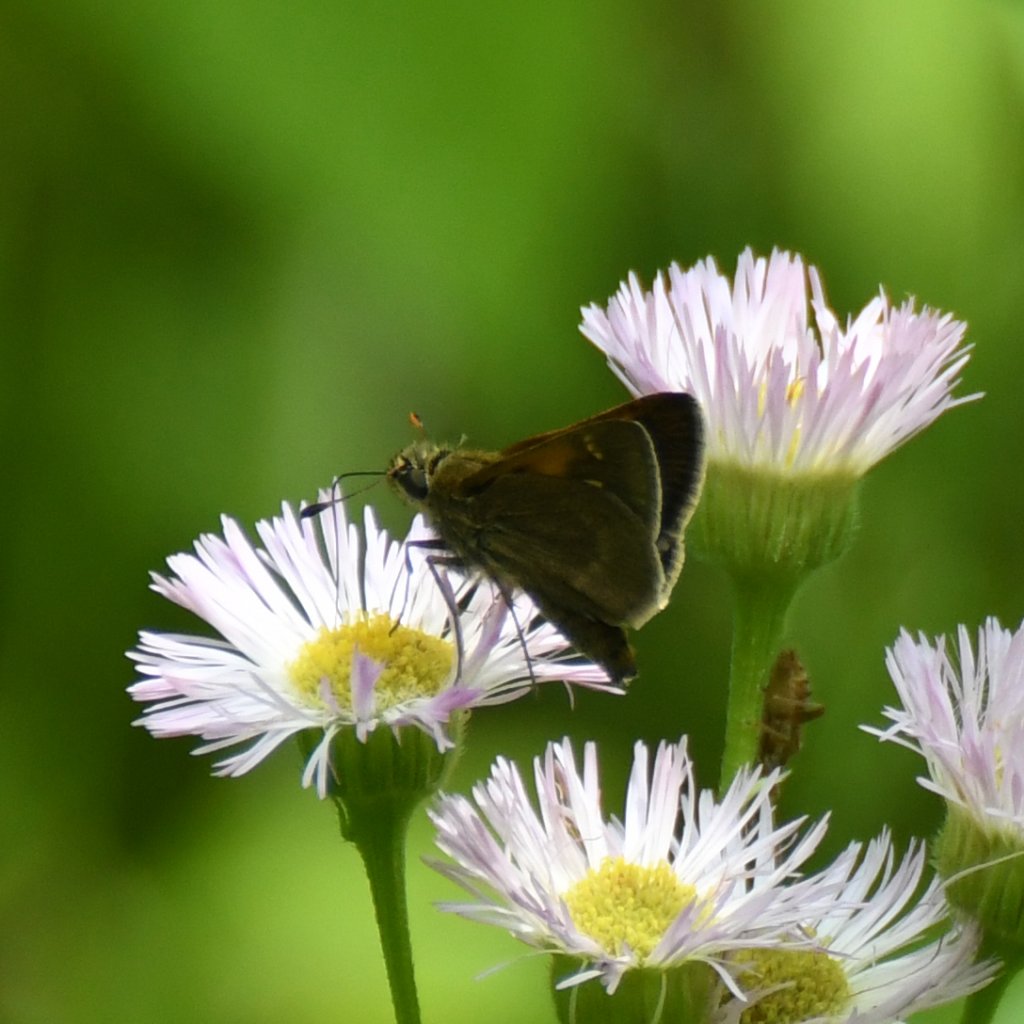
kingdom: Animalia
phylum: Arthropoda
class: Insecta
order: Lepidoptera
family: Hesperiidae
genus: Polites
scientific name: Polites themistocles
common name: Tawny-edged Skipper
